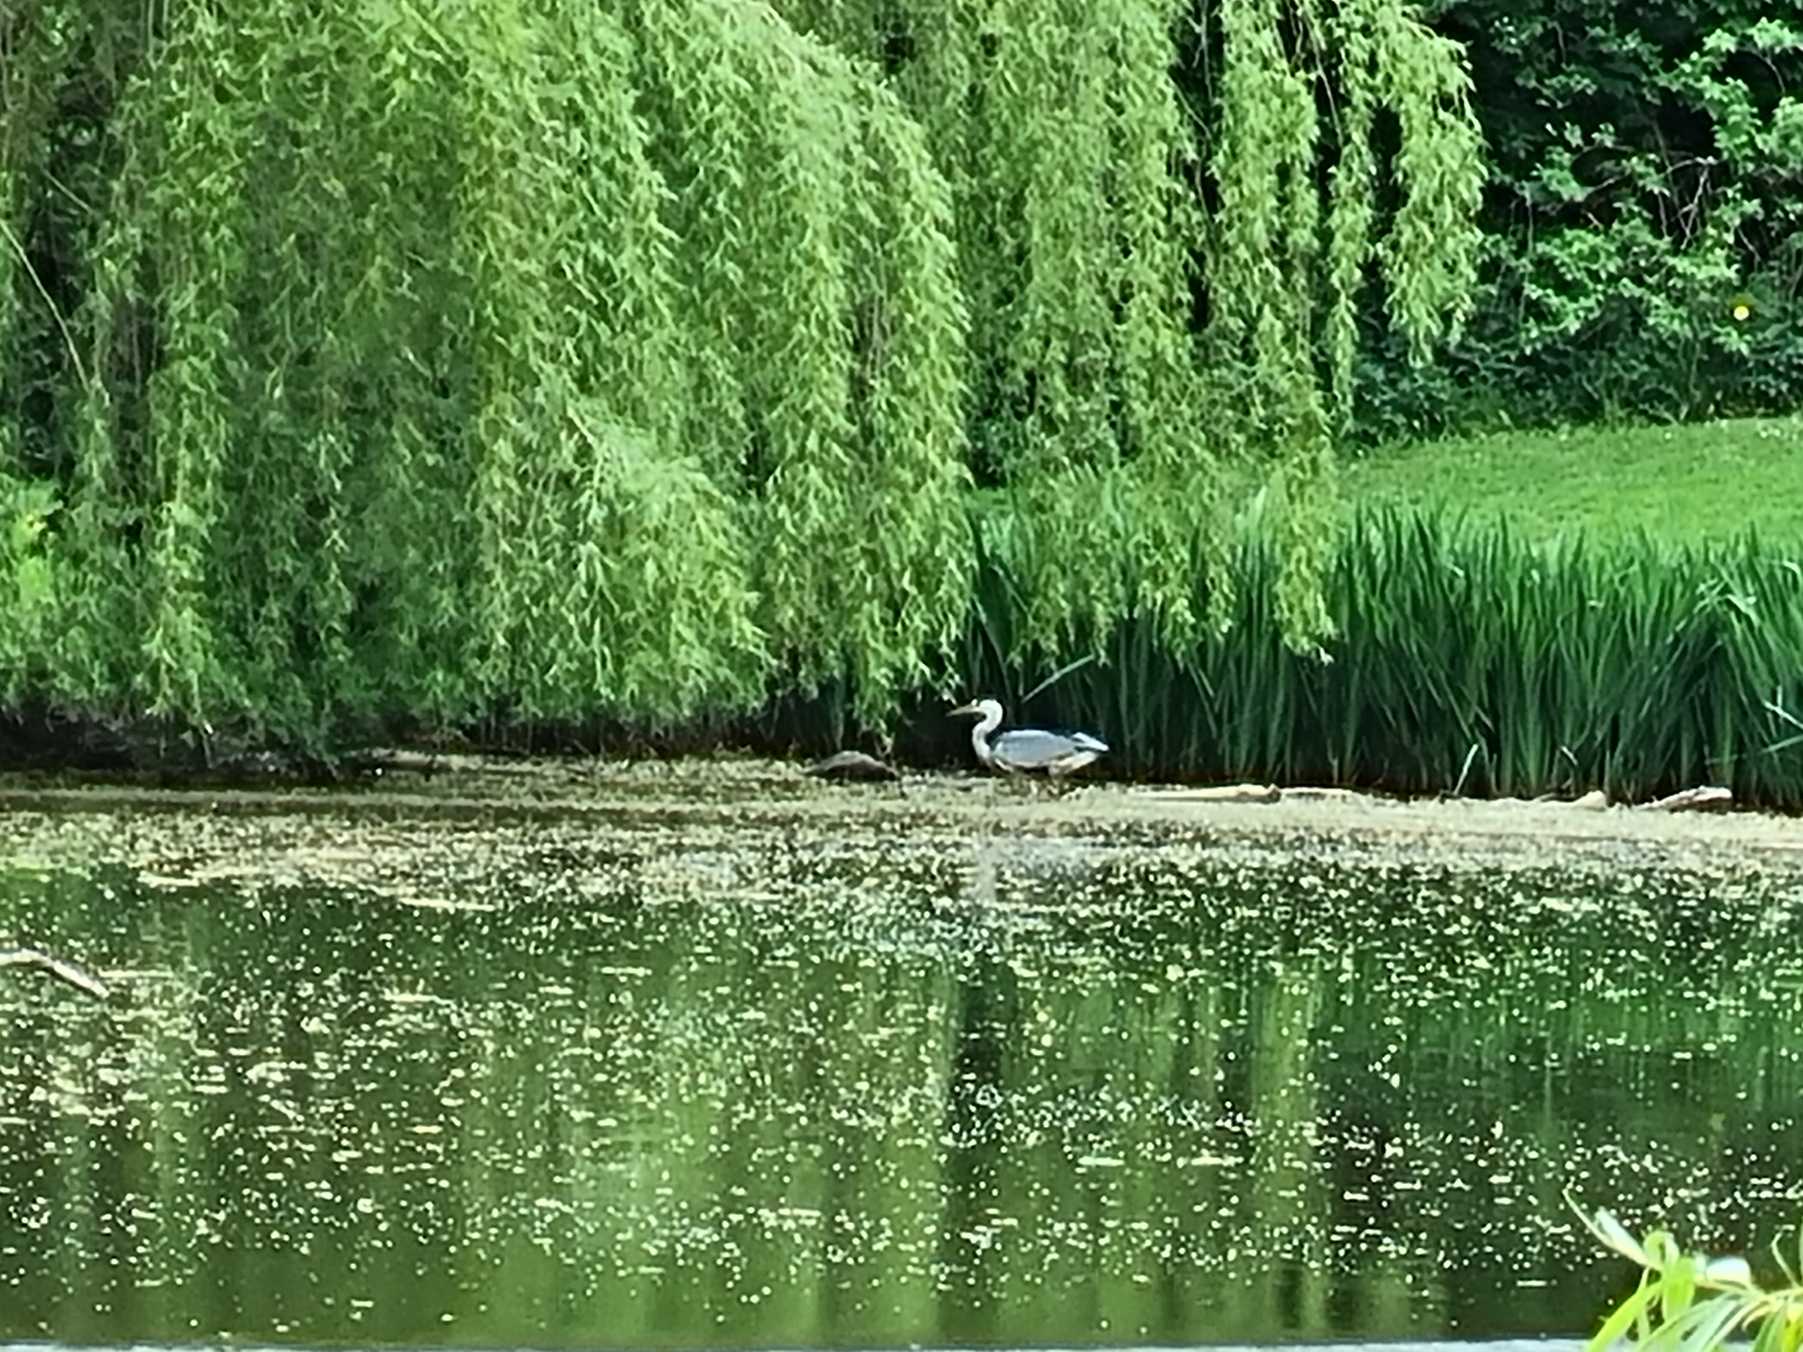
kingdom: Animalia
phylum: Chordata
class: Aves
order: Pelecaniformes
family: Ardeidae
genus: Ardea
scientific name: Ardea cinerea
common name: Fiskehejre
